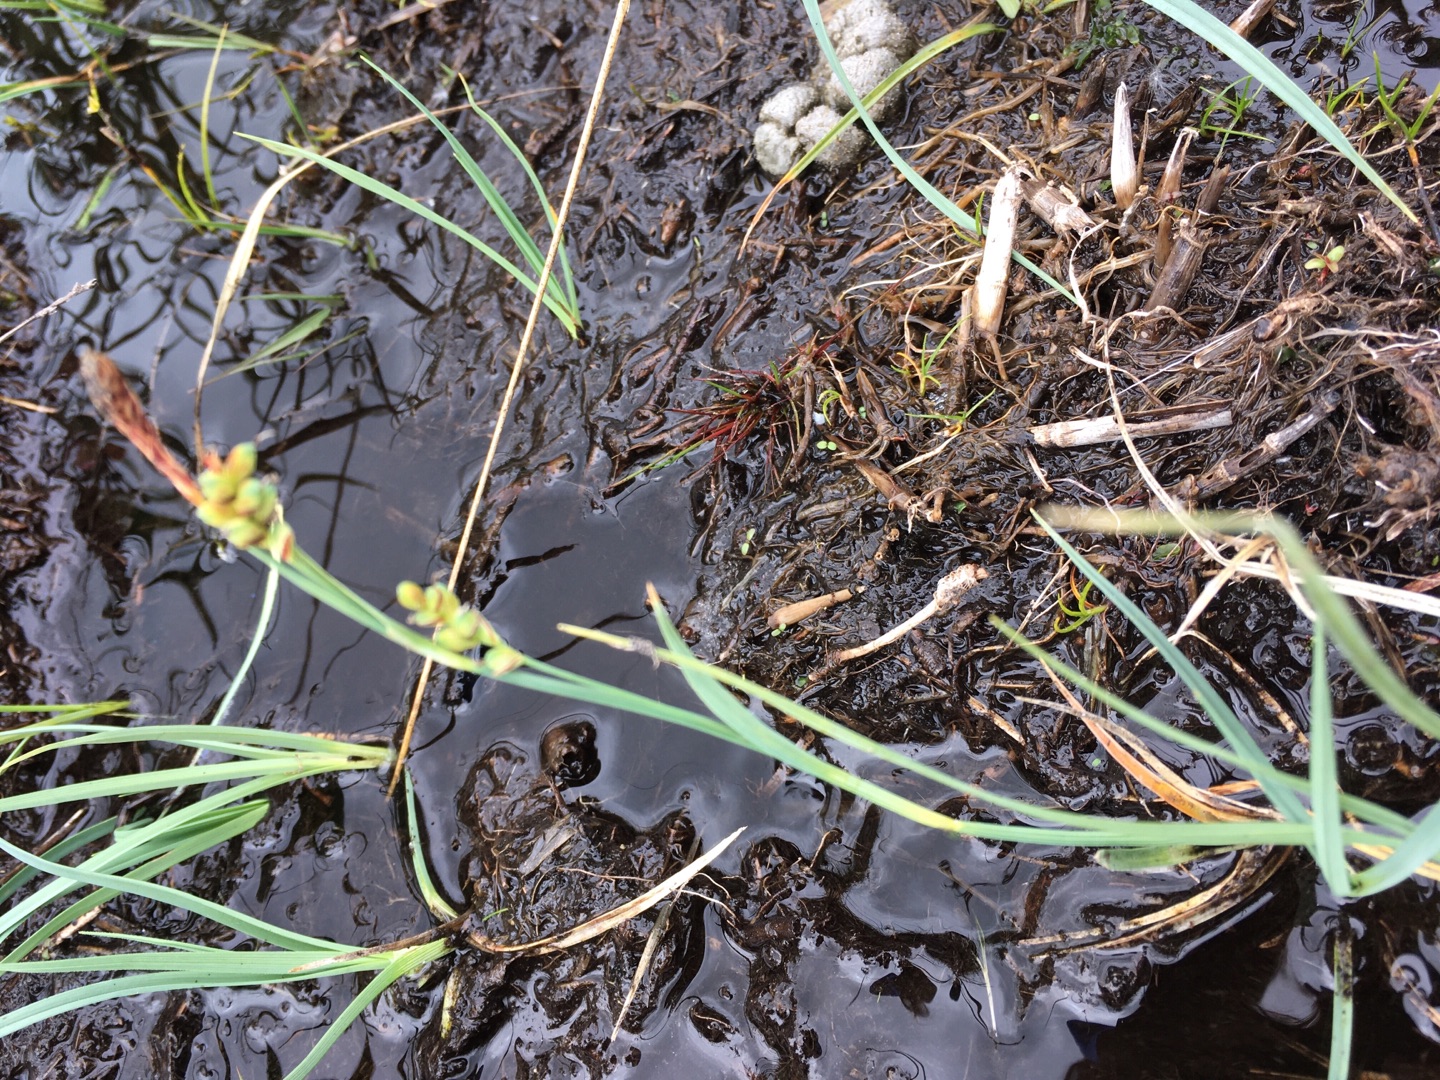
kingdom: Plantae
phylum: Tracheophyta
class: Liliopsida
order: Poales
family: Cyperaceae
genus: Carex
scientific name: Carex panicea
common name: Hirse-star
